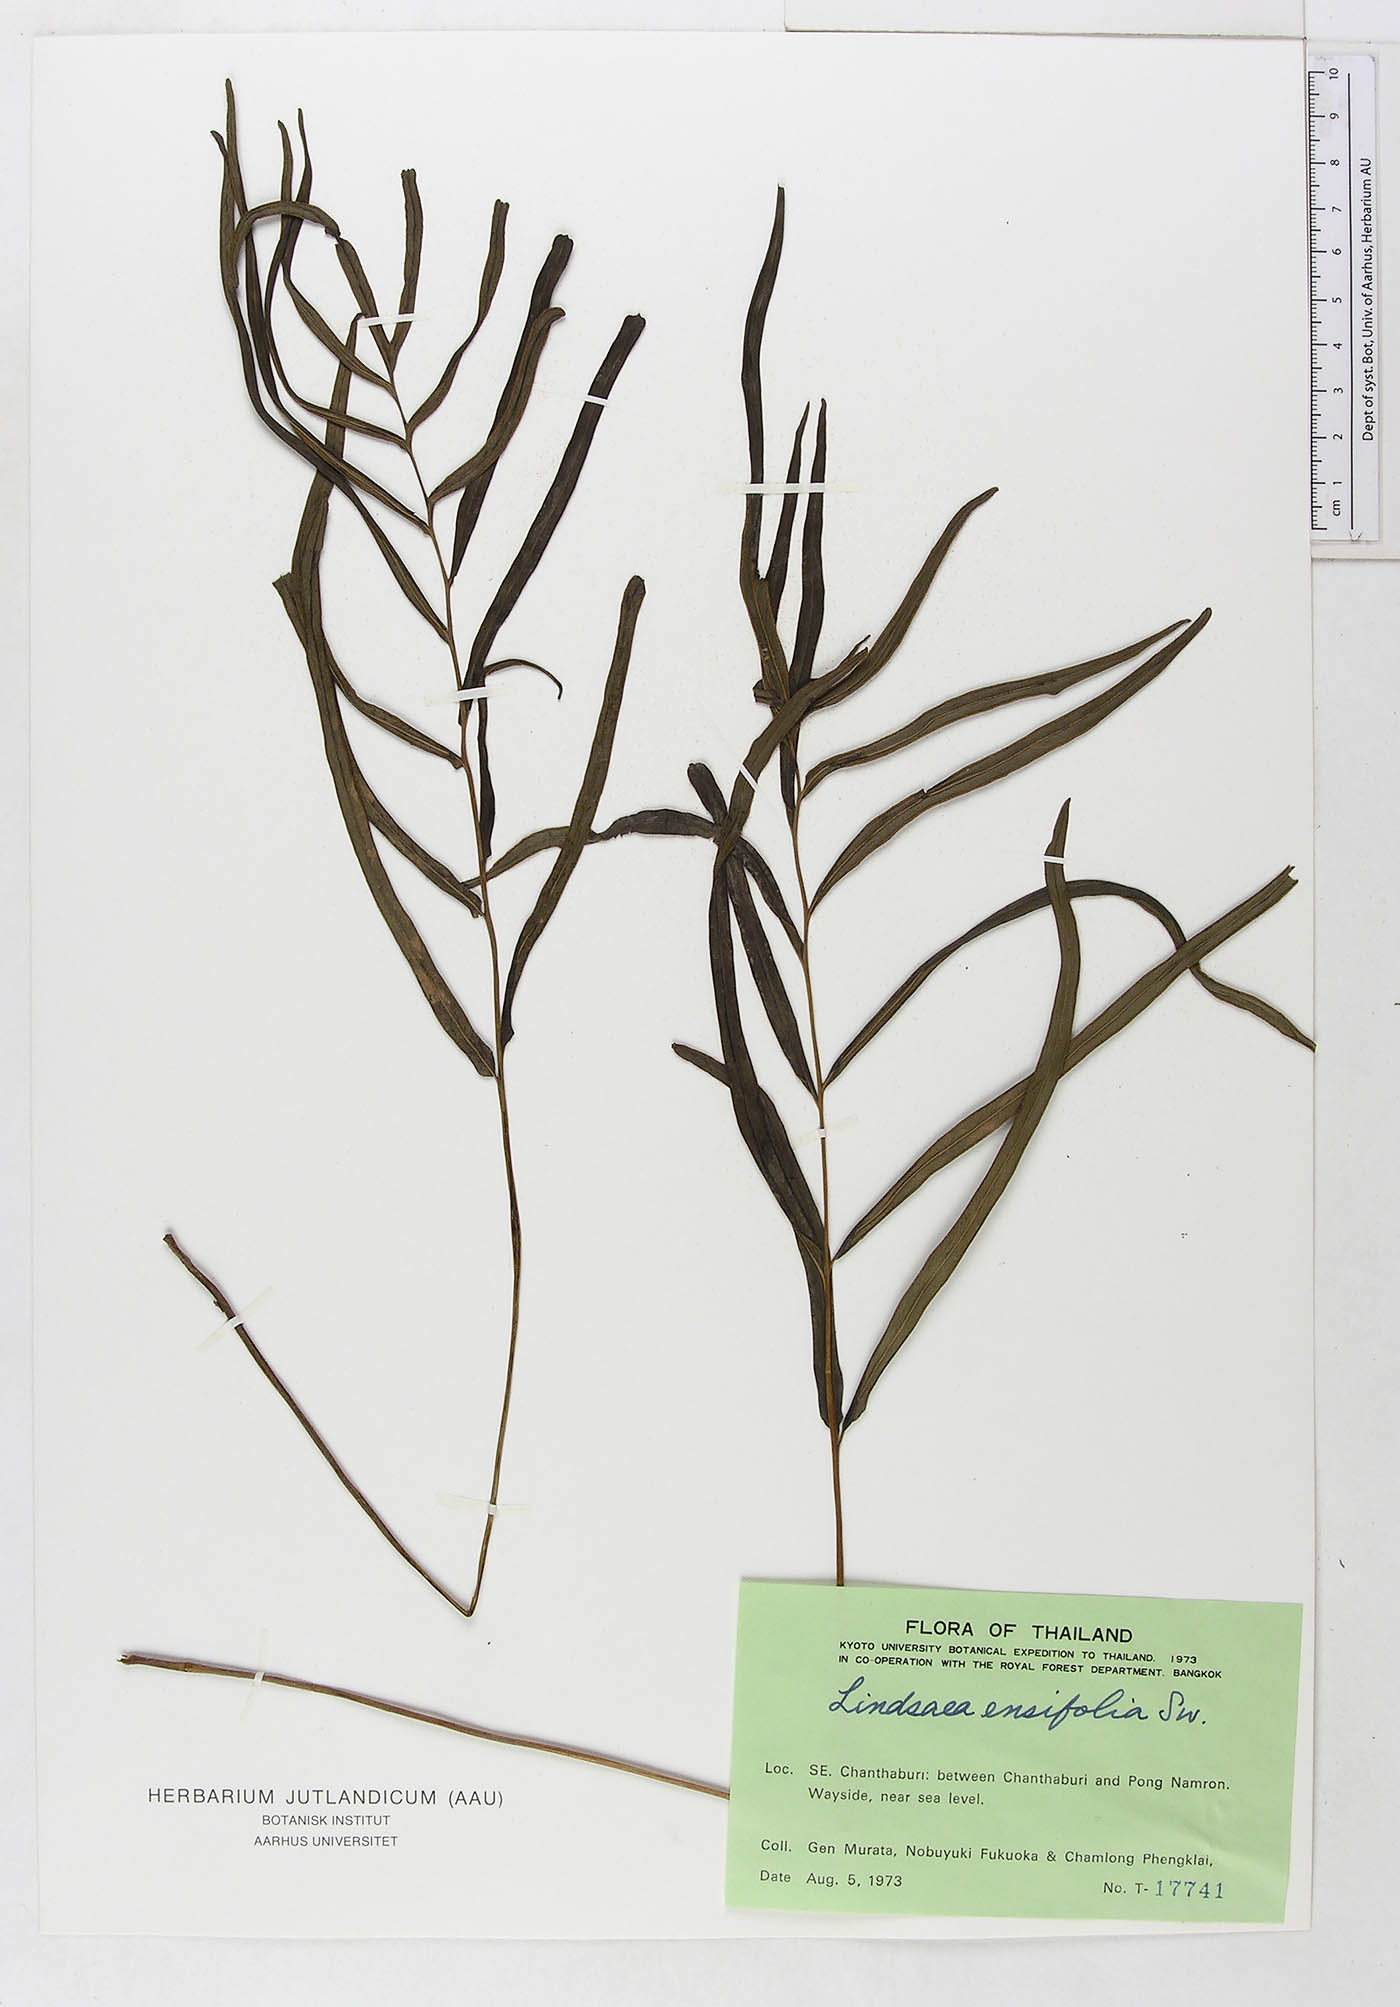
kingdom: Plantae
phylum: Tracheophyta
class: Polypodiopsida
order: Polypodiales
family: Lindsaeaceae
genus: Lindsaea
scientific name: Lindsaea ensifolia
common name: Graceful necklace fern
